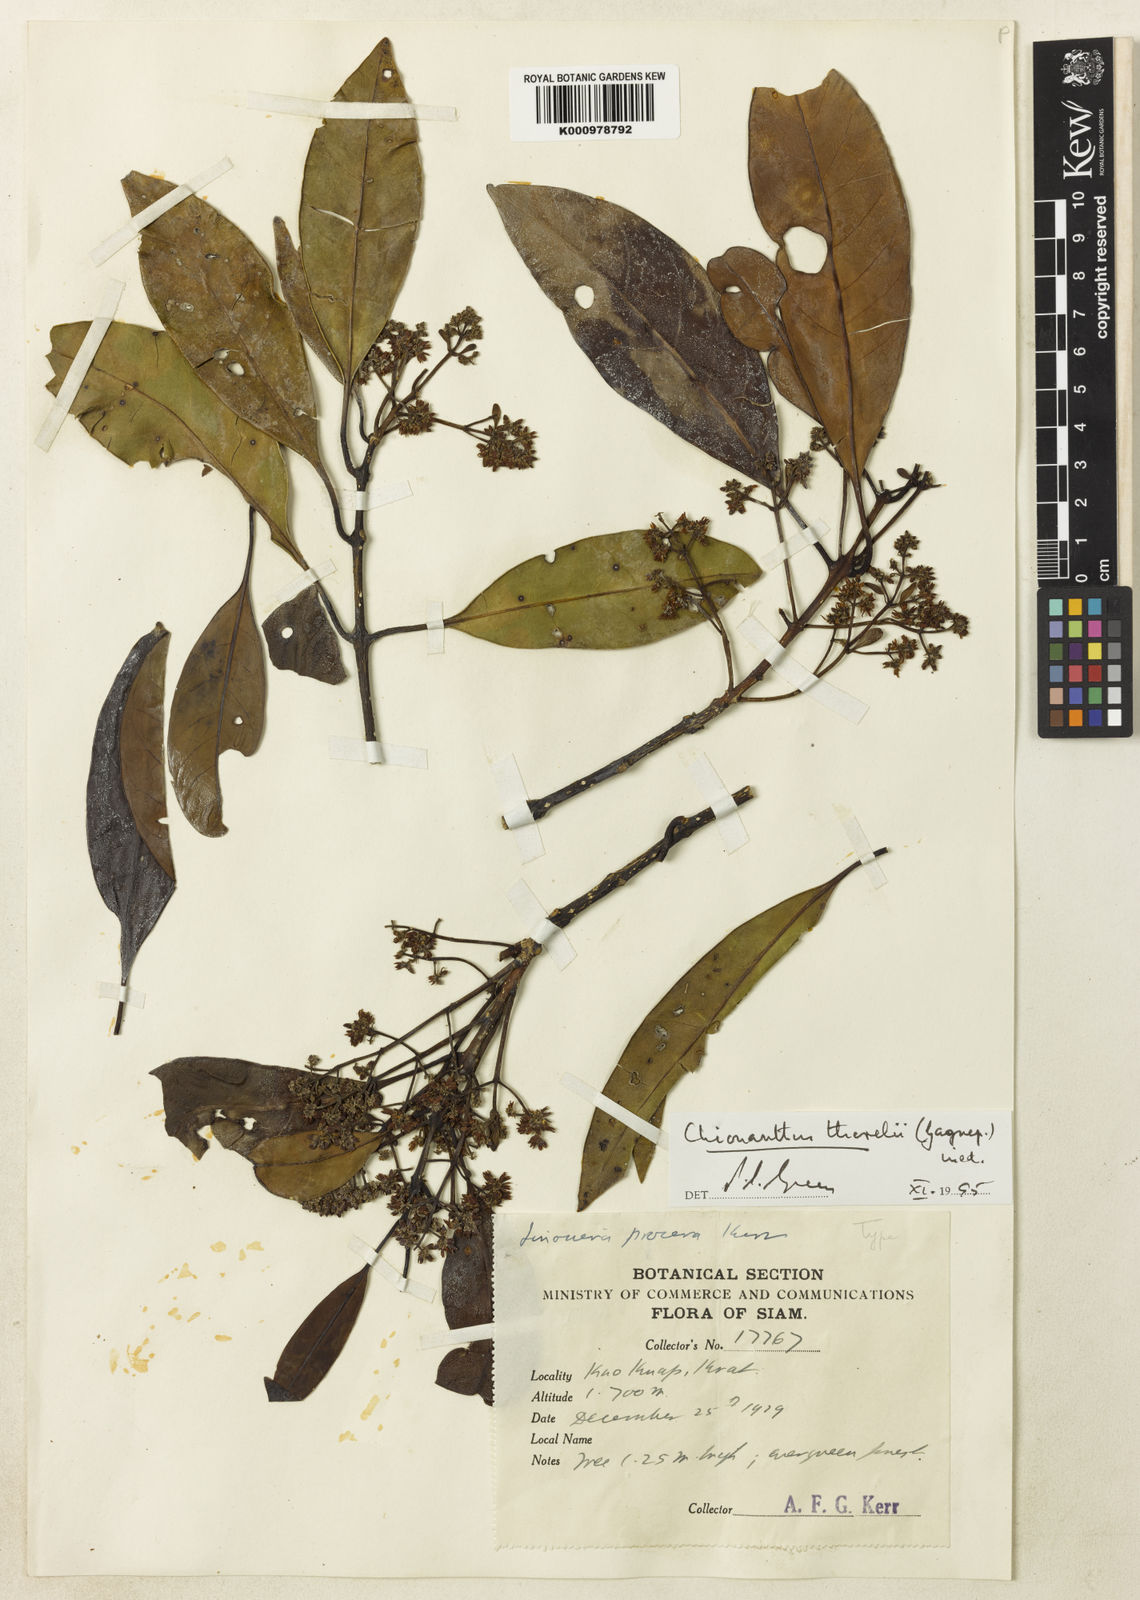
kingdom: Plantae
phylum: Tracheophyta
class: Magnoliopsida
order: Lamiales
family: Oleaceae
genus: Chionanthus
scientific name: Chionanthus thorelii
